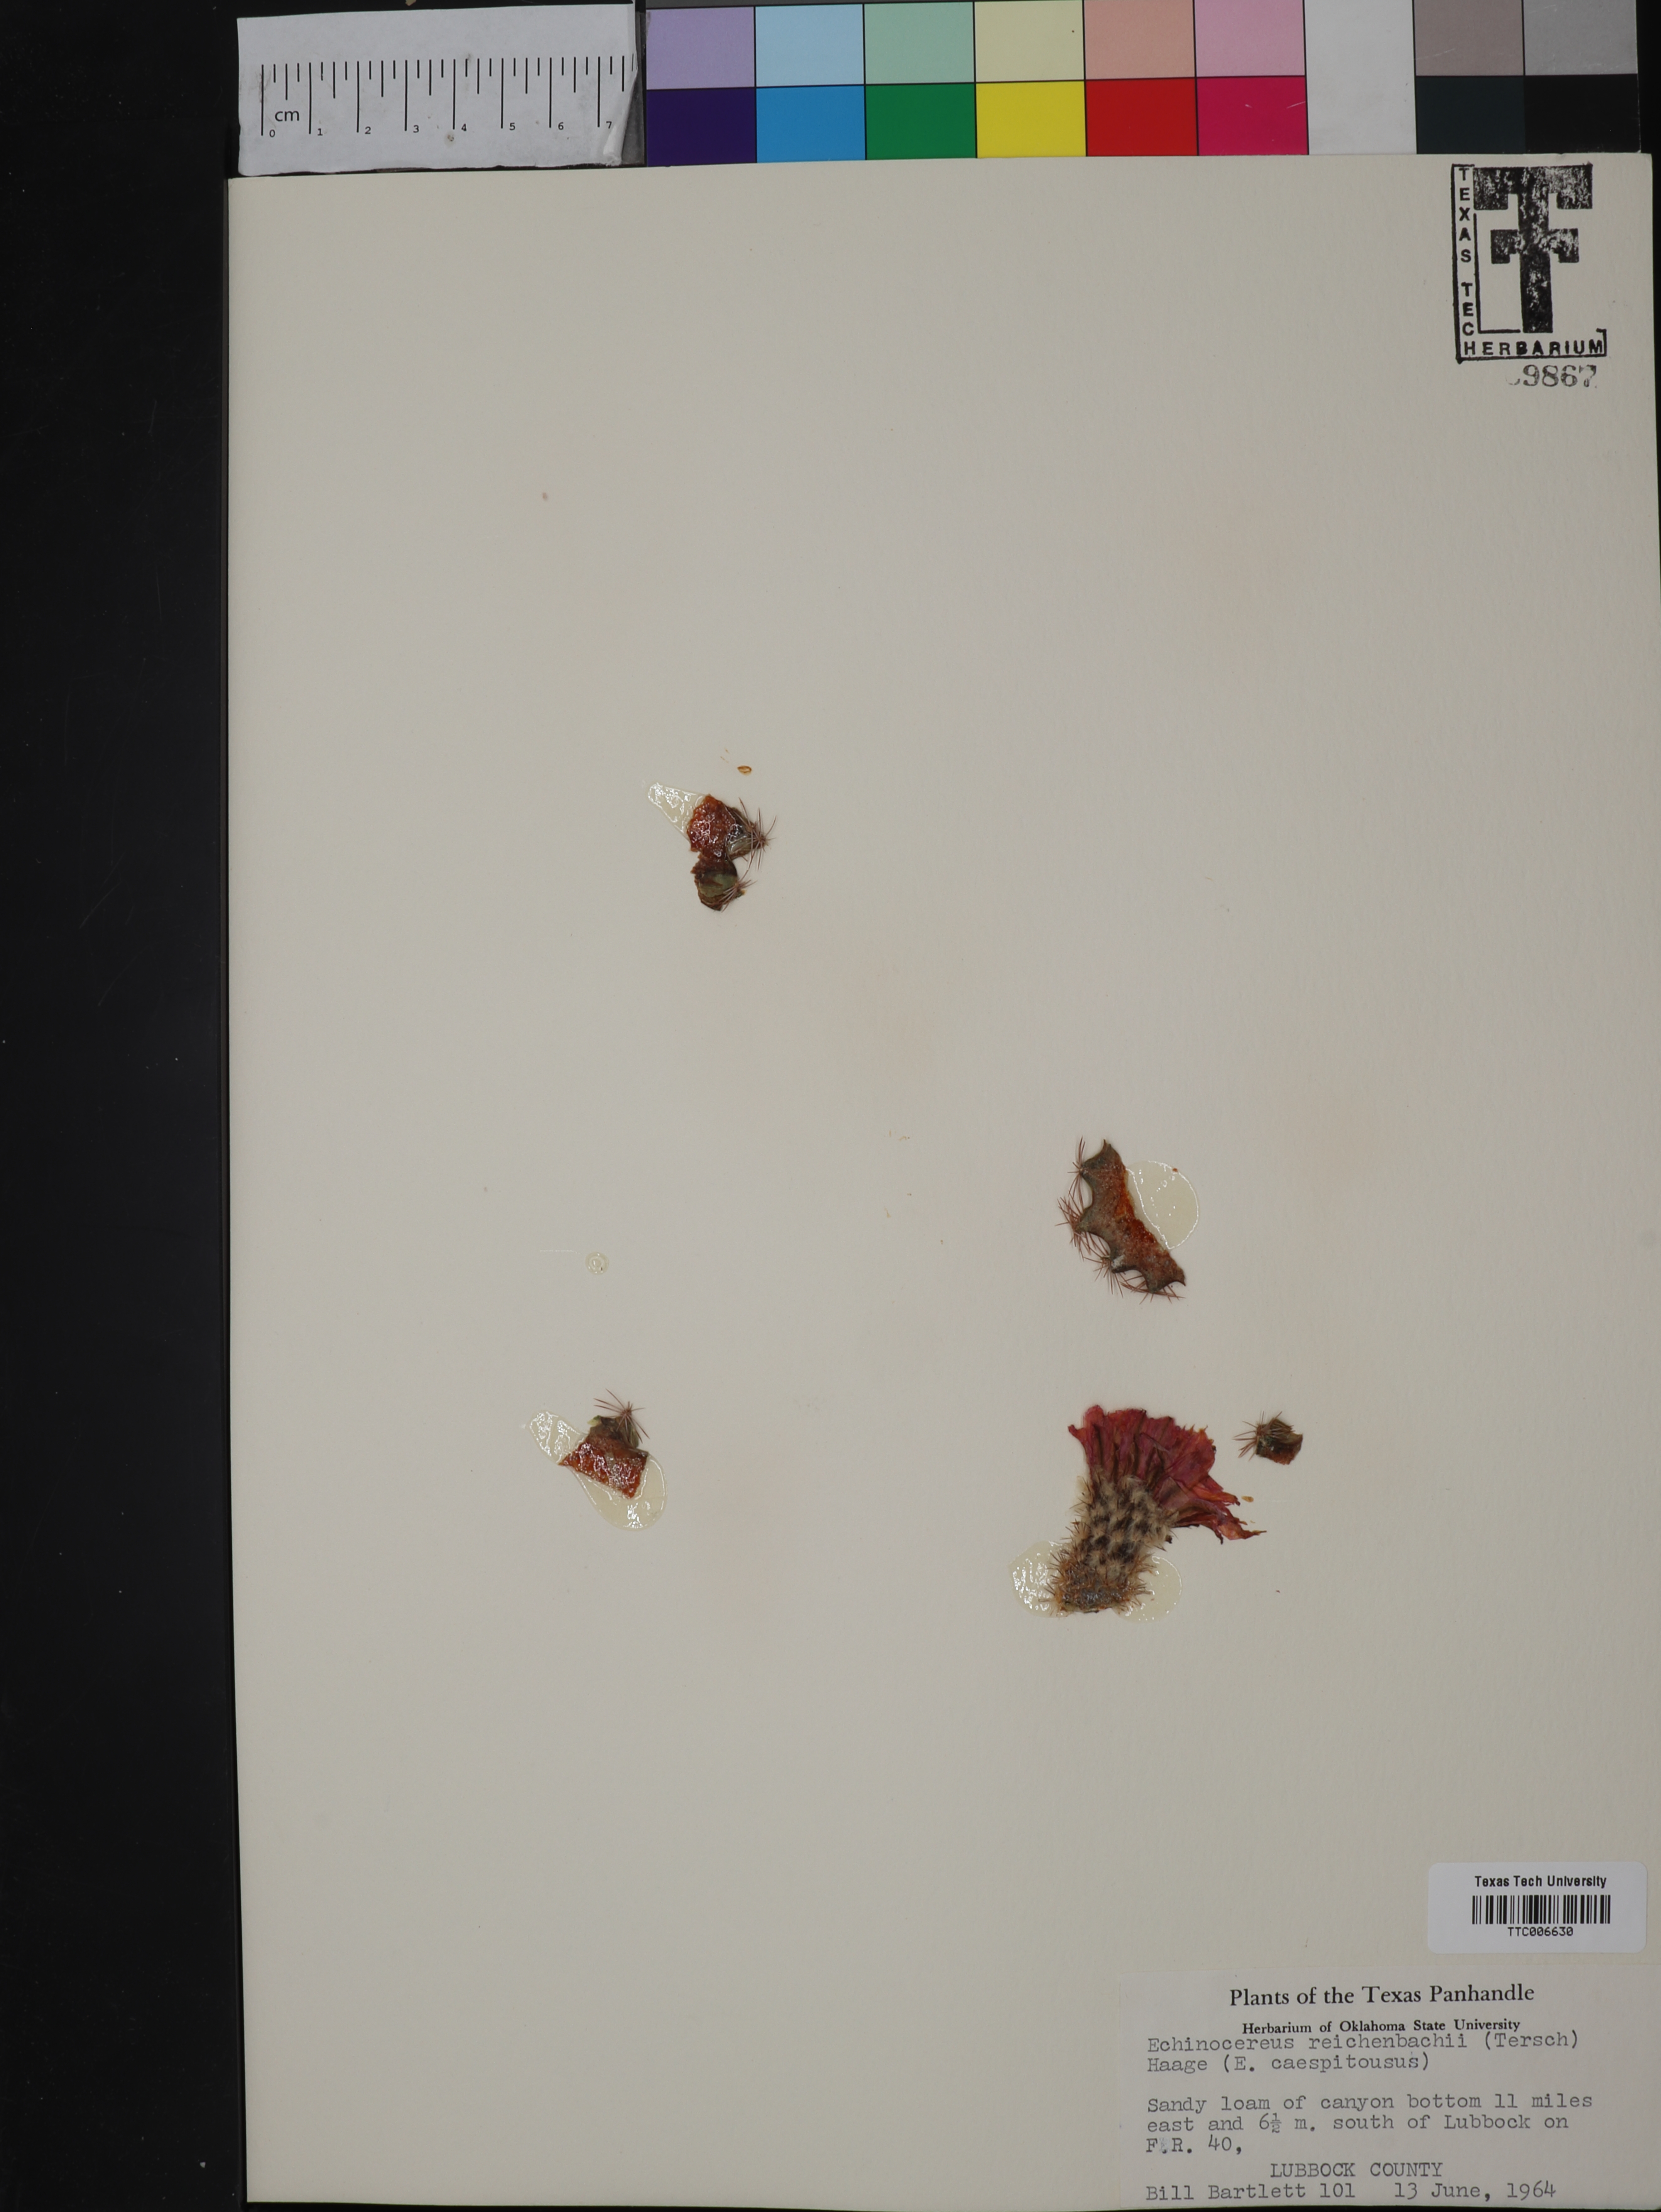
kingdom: Plantae
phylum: Tracheophyta
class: Magnoliopsida
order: Caryophyllales
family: Cactaceae
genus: Echinocereus
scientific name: Echinocereus reichenbachii
